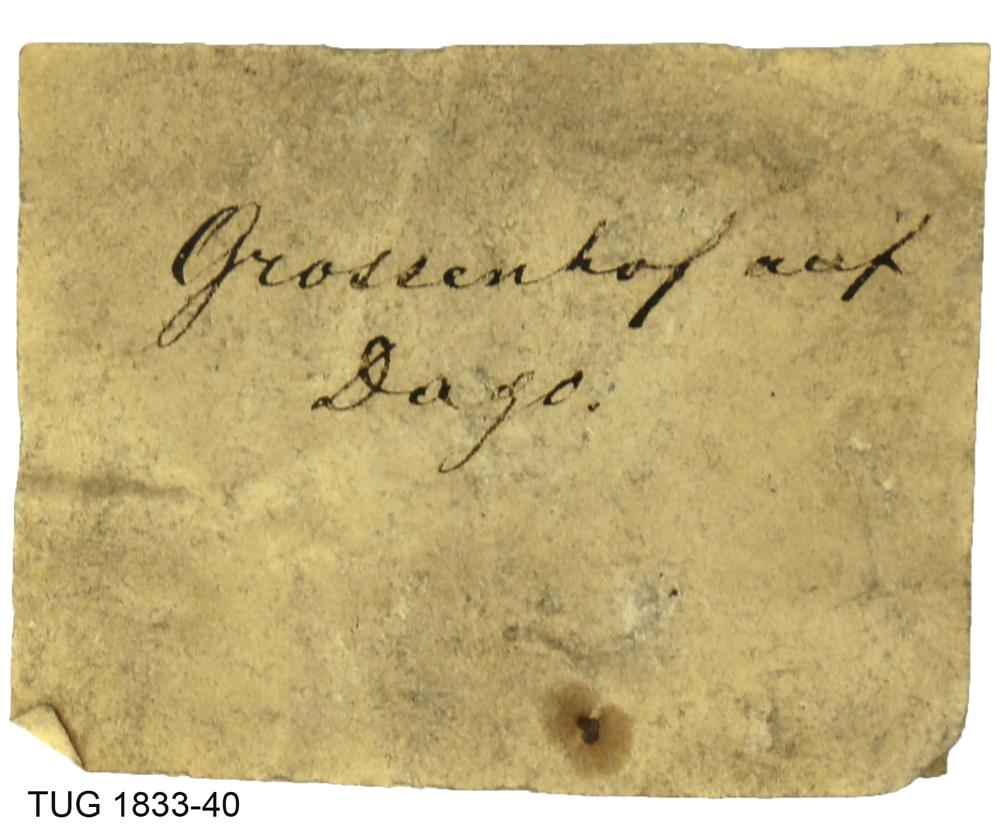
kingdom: Animalia
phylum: Porifera
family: Stromatoporidae
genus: Stromatopora
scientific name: Stromatopora
